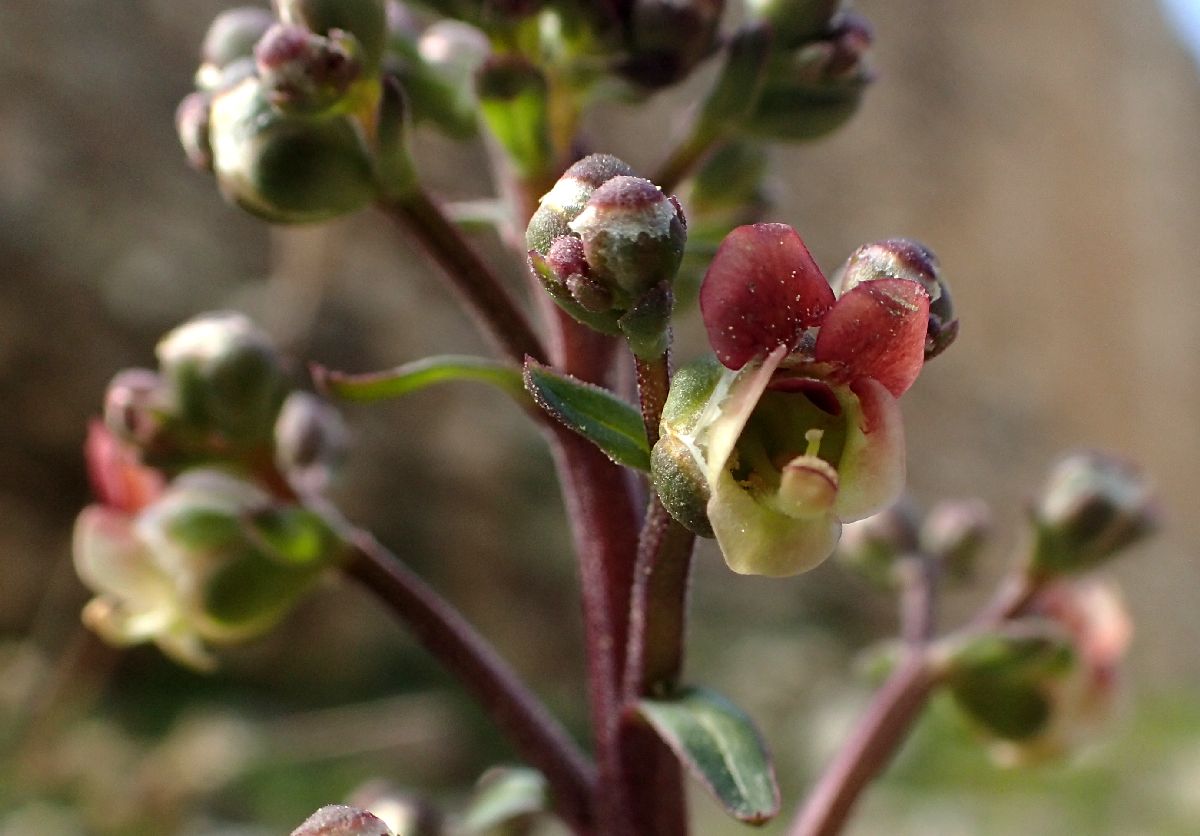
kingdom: Plantae
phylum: Tracheophyta
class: Magnoliopsida
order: Lamiales
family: Scrophulariaceae
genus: Scrophularia
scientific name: Scrophularia heterophylla
